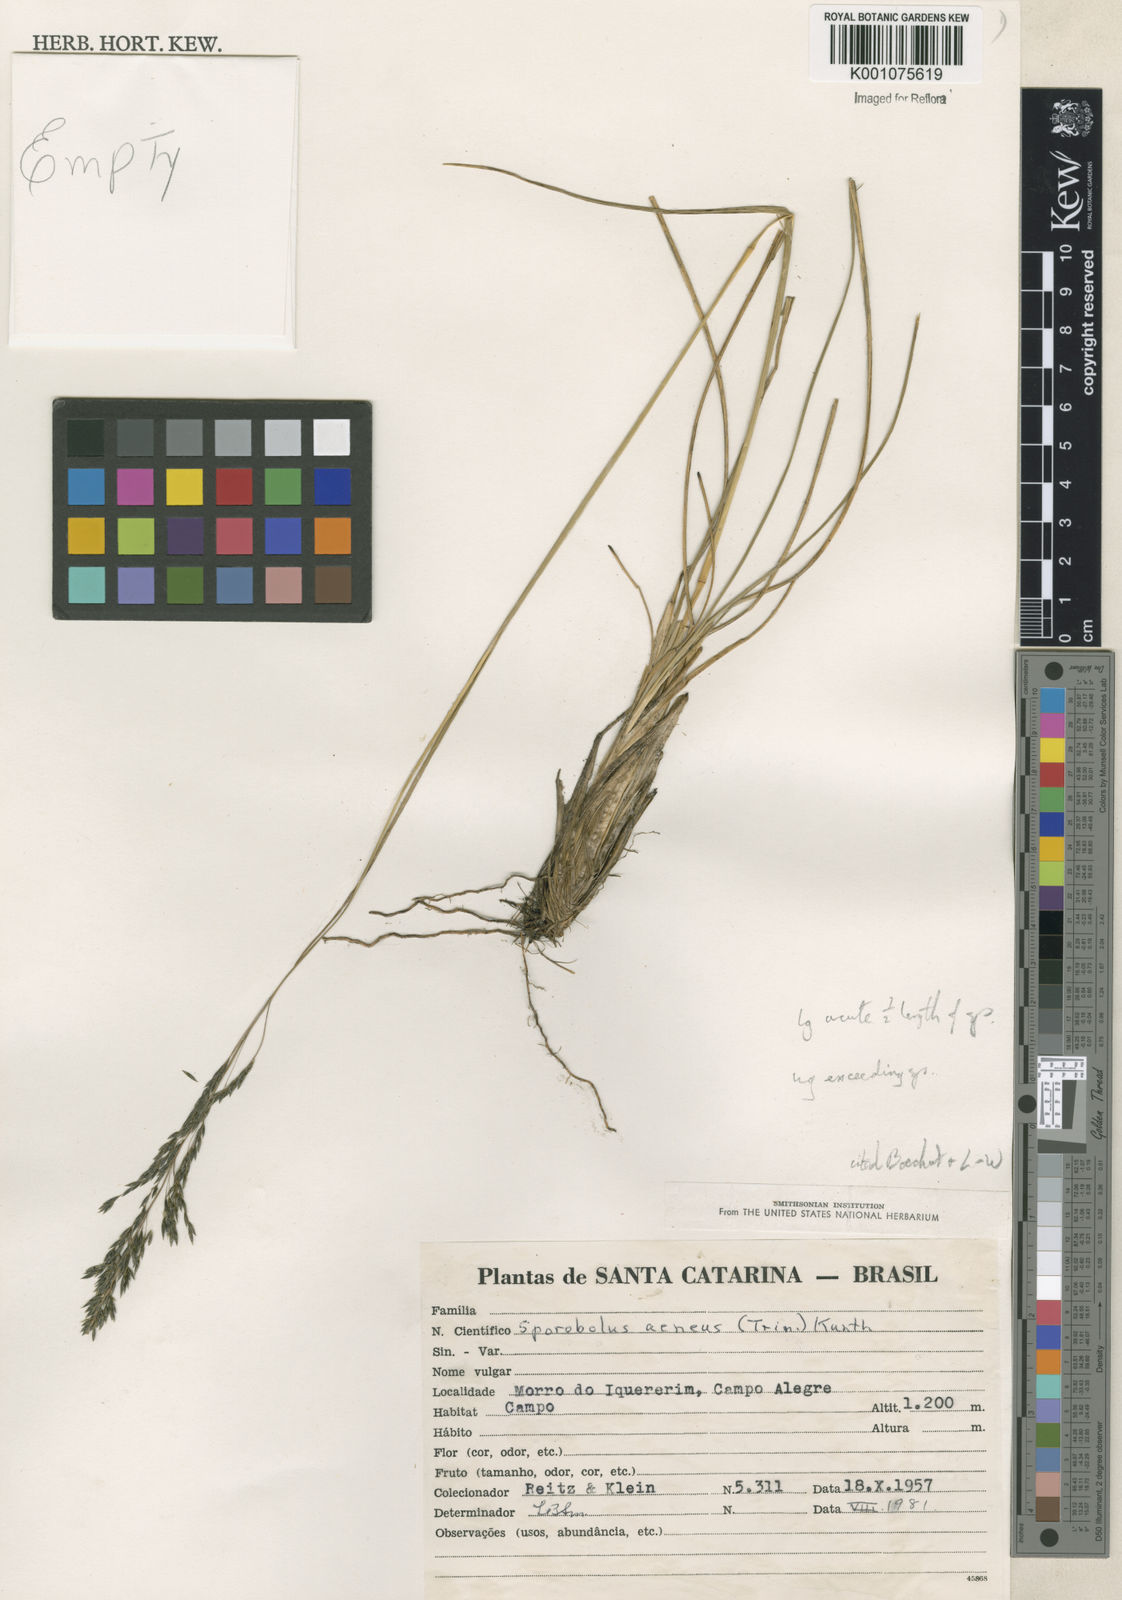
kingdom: Plantae
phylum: Tracheophyta
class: Liliopsida
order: Poales
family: Poaceae
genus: Sporobolus
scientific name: Sporobolus camporum
